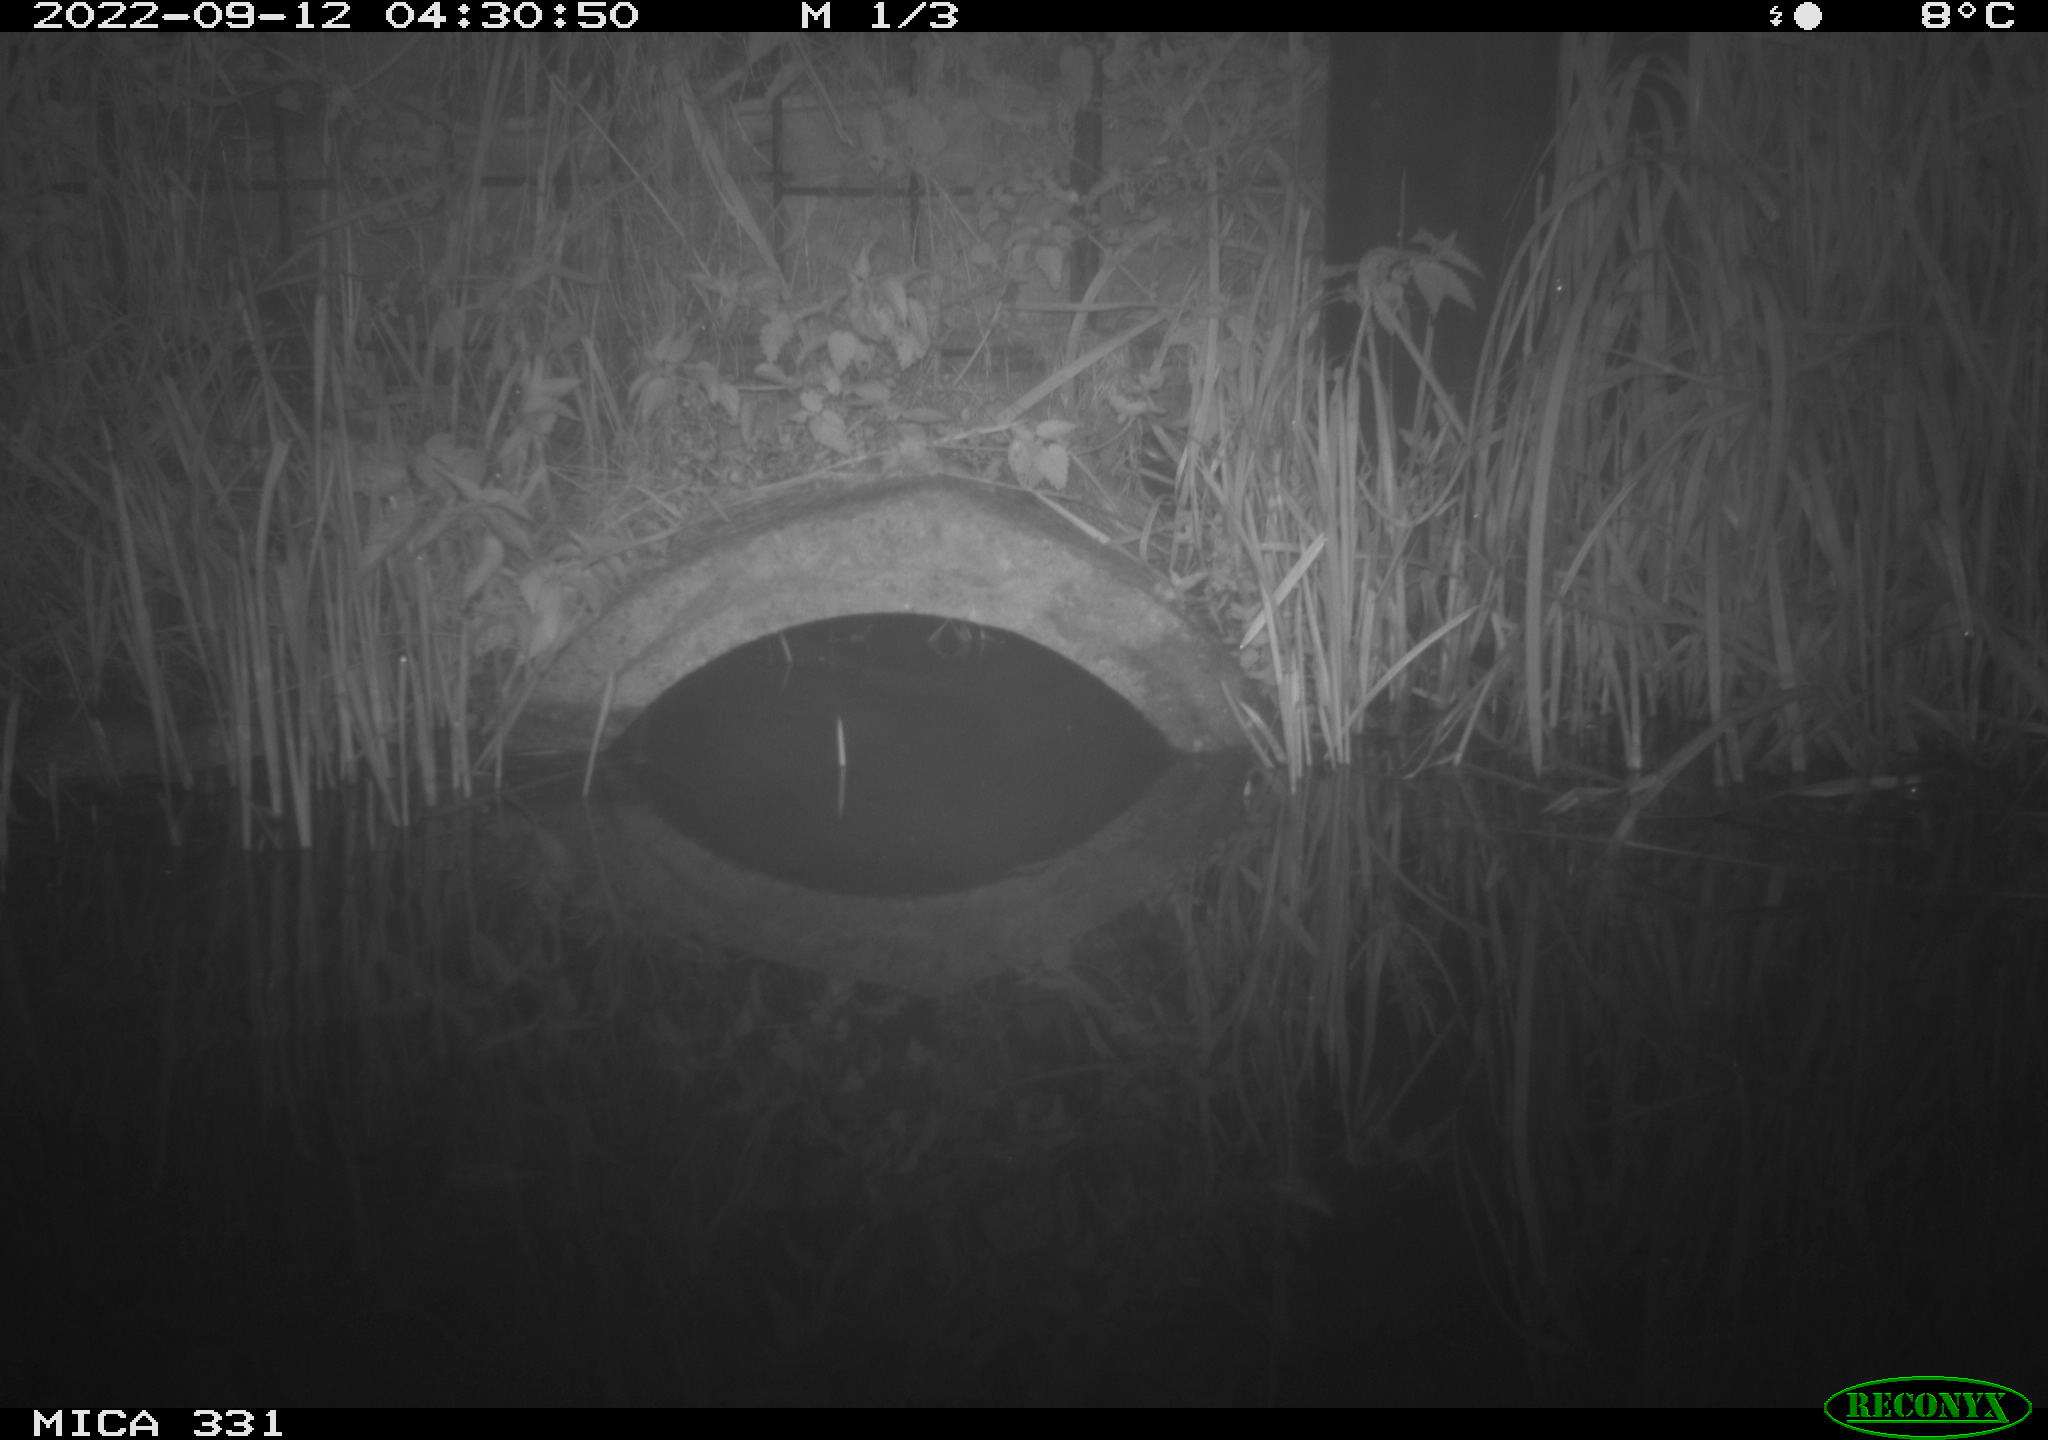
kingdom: Animalia
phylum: Chordata
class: Mammalia
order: Rodentia
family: Muridae
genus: Rattus
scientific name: Rattus norvegicus
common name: Brown rat
